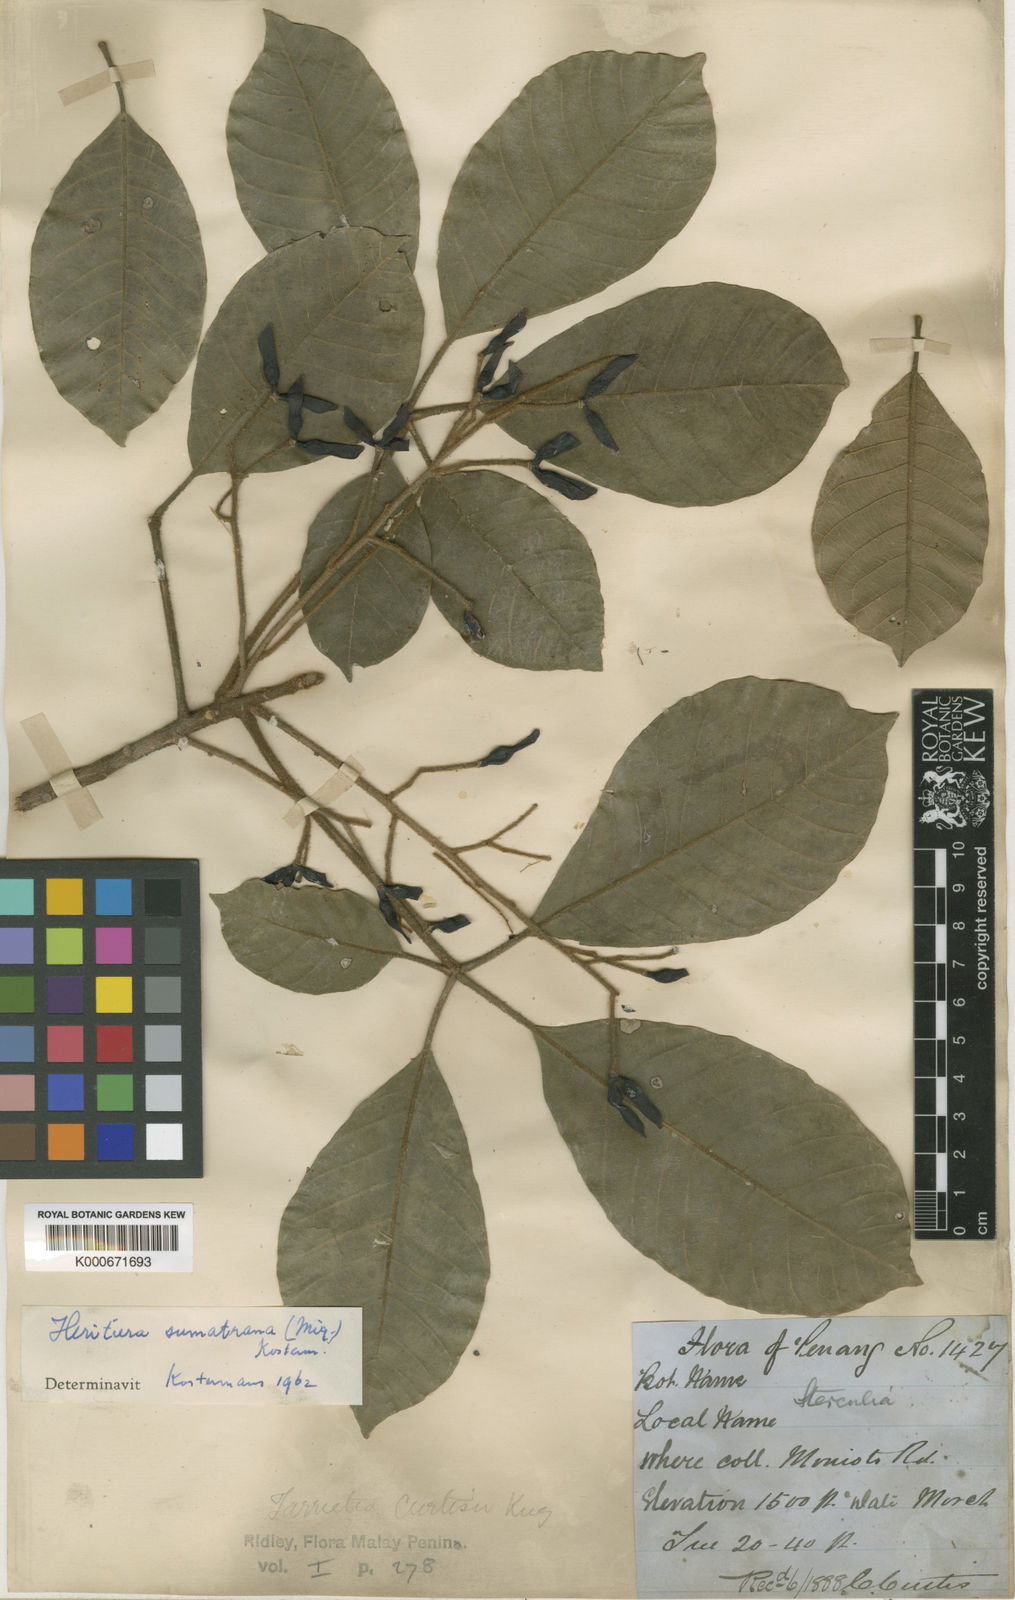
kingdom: Plantae
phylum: Tracheophyta
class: Magnoliopsida
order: Malvales
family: Malvaceae
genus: Heritiera
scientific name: Heritiera sumatrana
